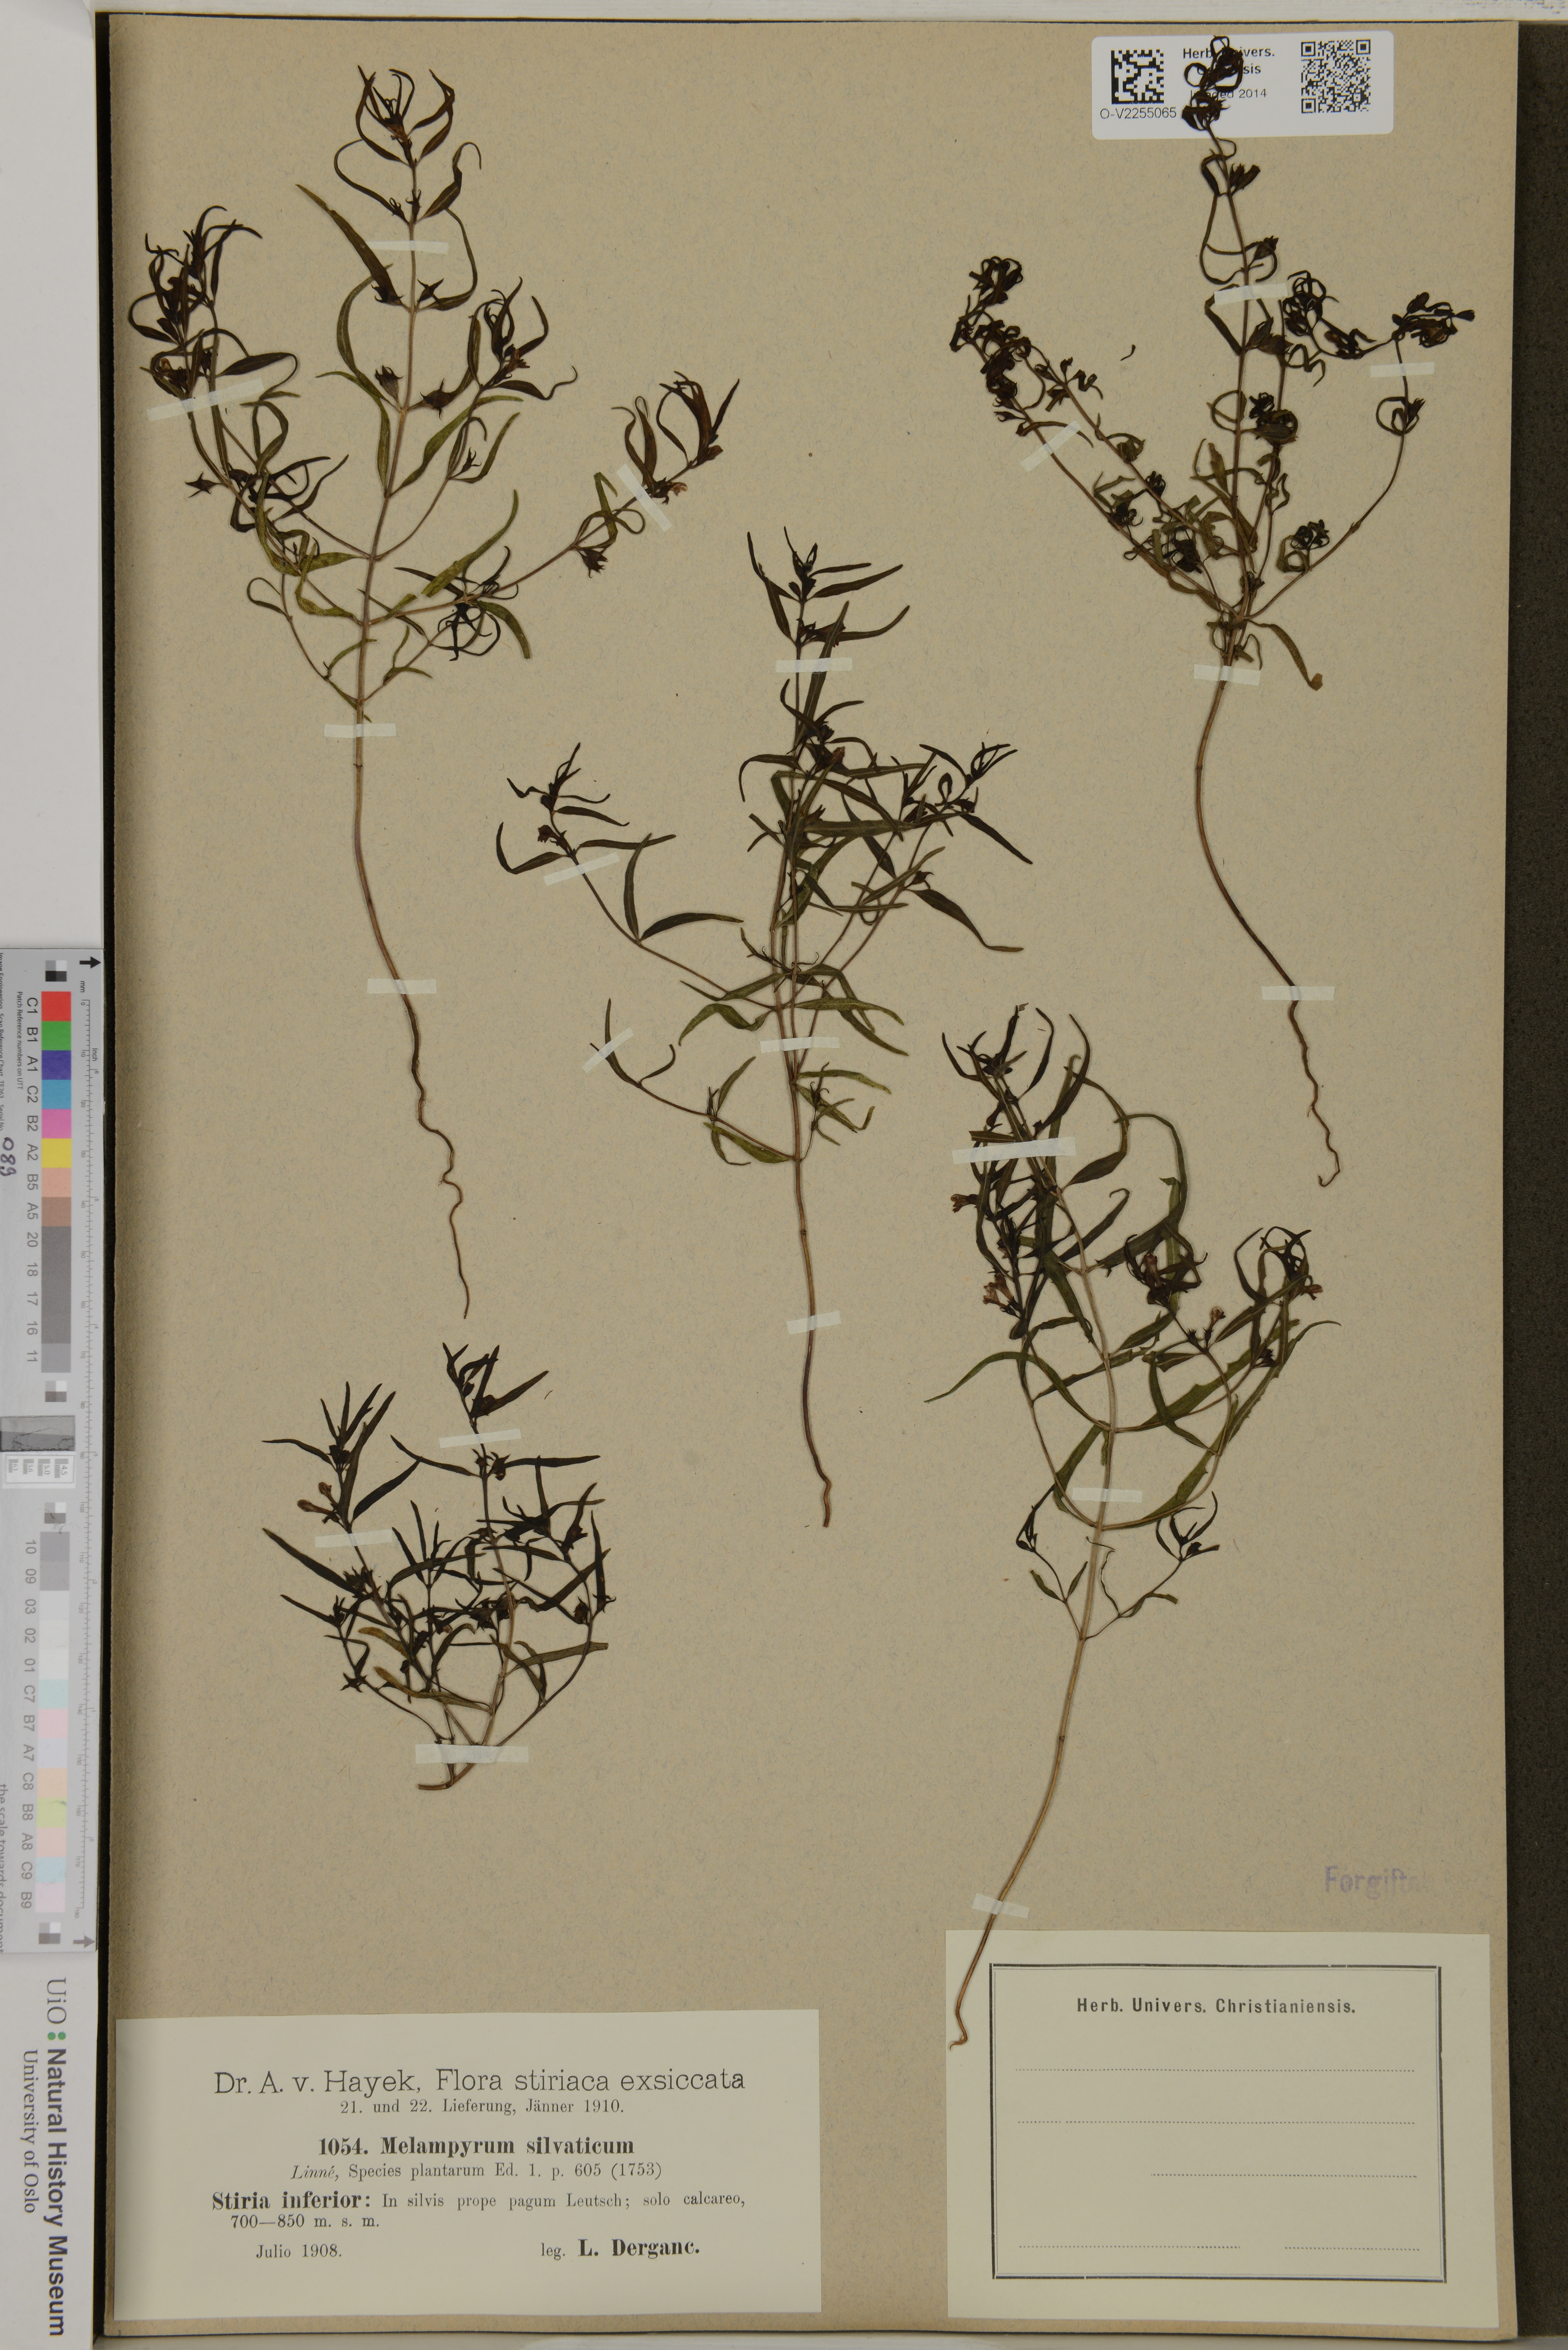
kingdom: Plantae
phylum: Tracheophyta
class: Magnoliopsida
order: Lamiales
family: Orobanchaceae
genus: Melampyrum
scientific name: Melampyrum sylvaticum
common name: Small cow-wheat
